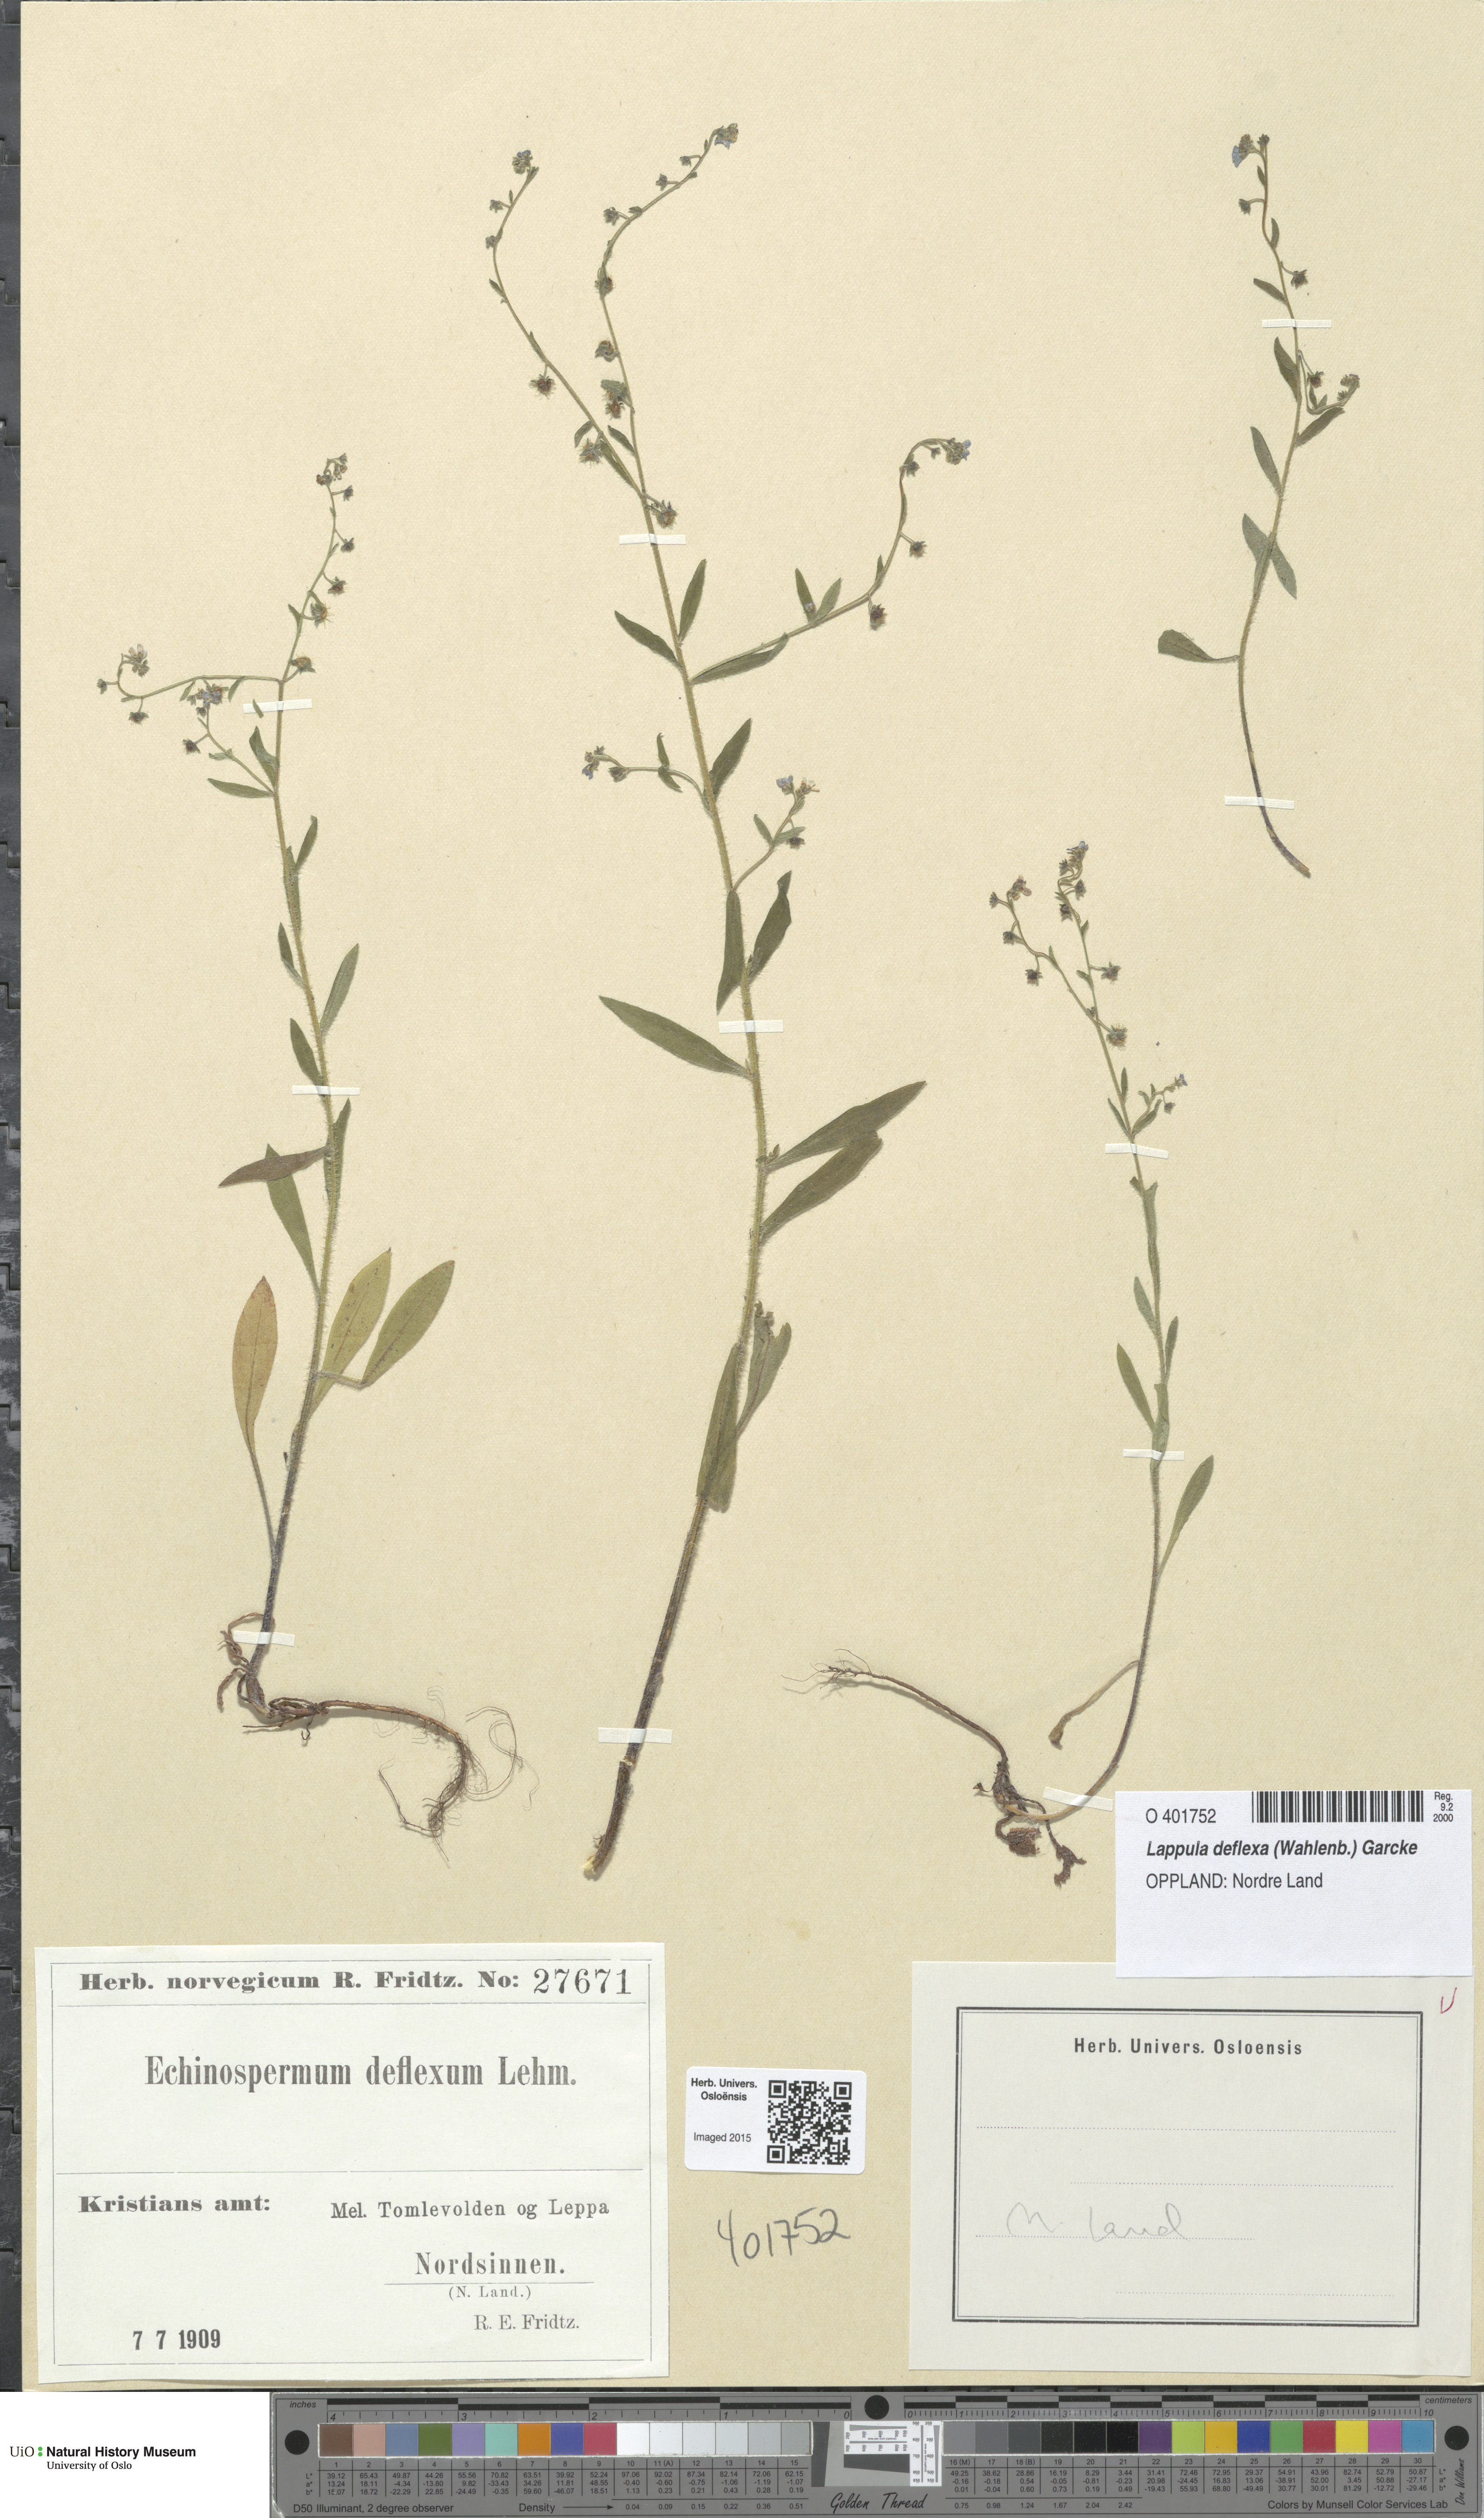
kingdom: Plantae
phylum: Tracheophyta
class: Magnoliopsida
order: Boraginales
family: Boraginaceae
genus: Hackelia
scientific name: Hackelia deflexa
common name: Nodding stickseed
